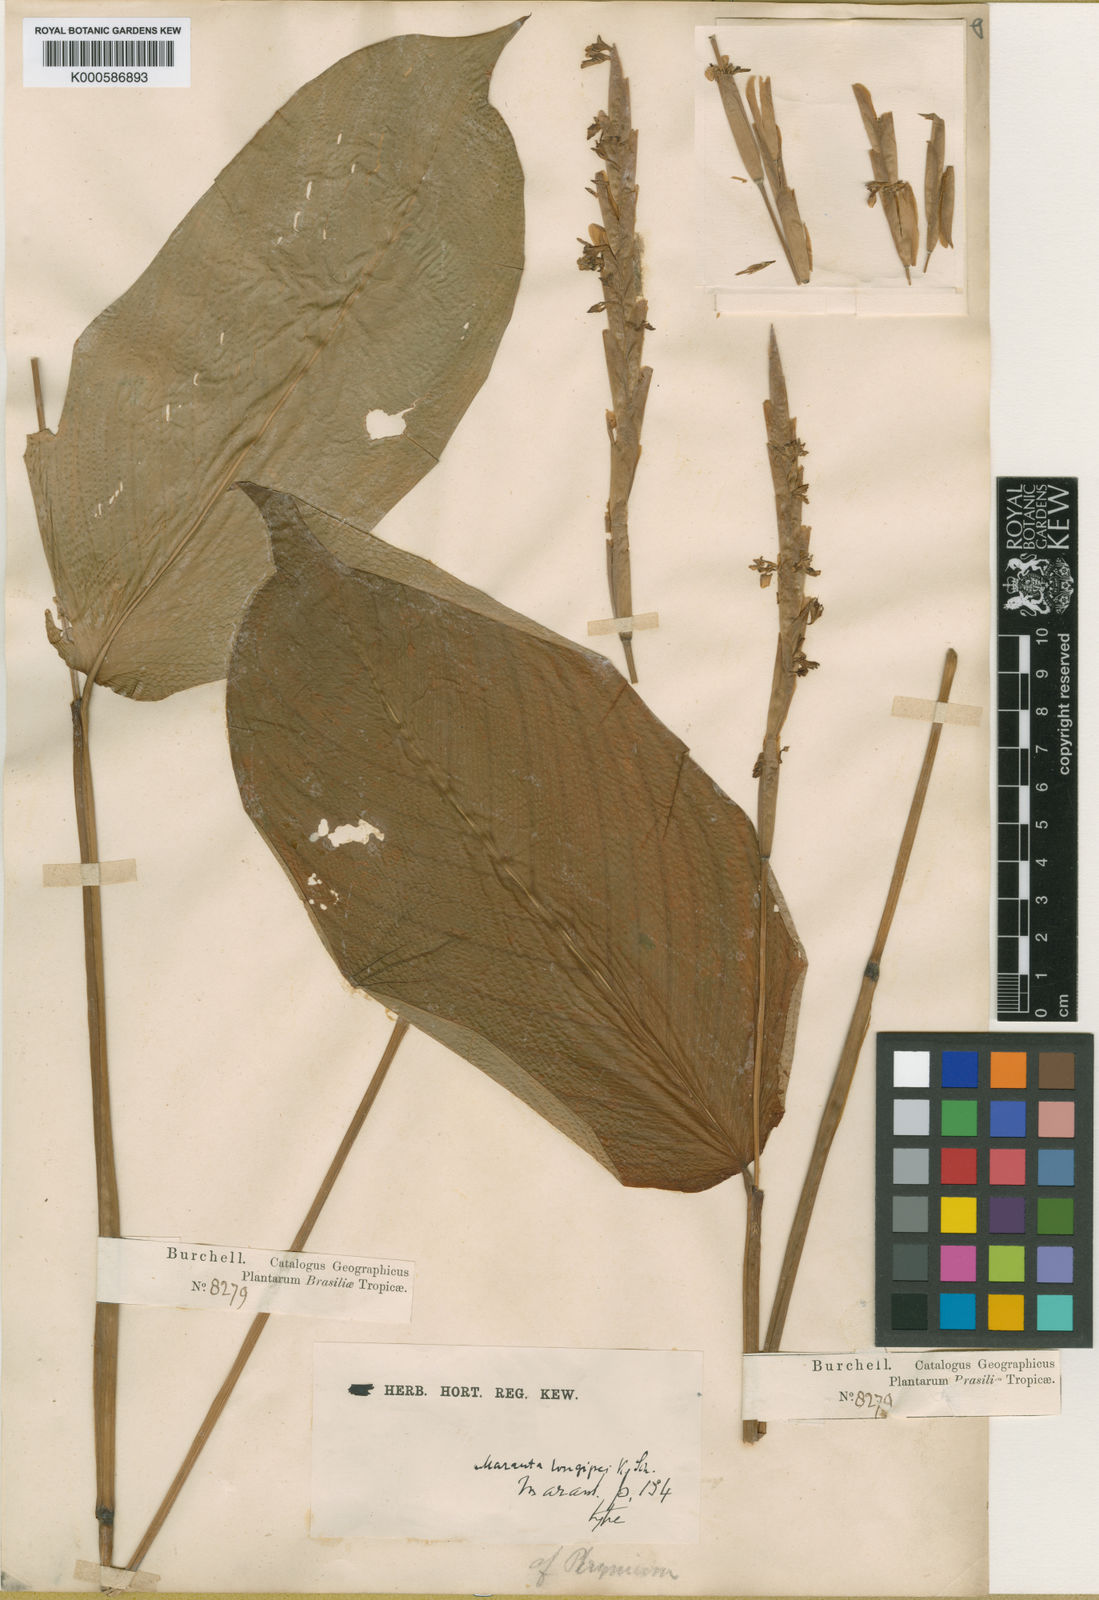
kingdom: Plantae
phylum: Tracheophyta
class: Liliopsida
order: Zingiberales
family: Marantaceae
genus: Maranta
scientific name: Maranta phrynioides
